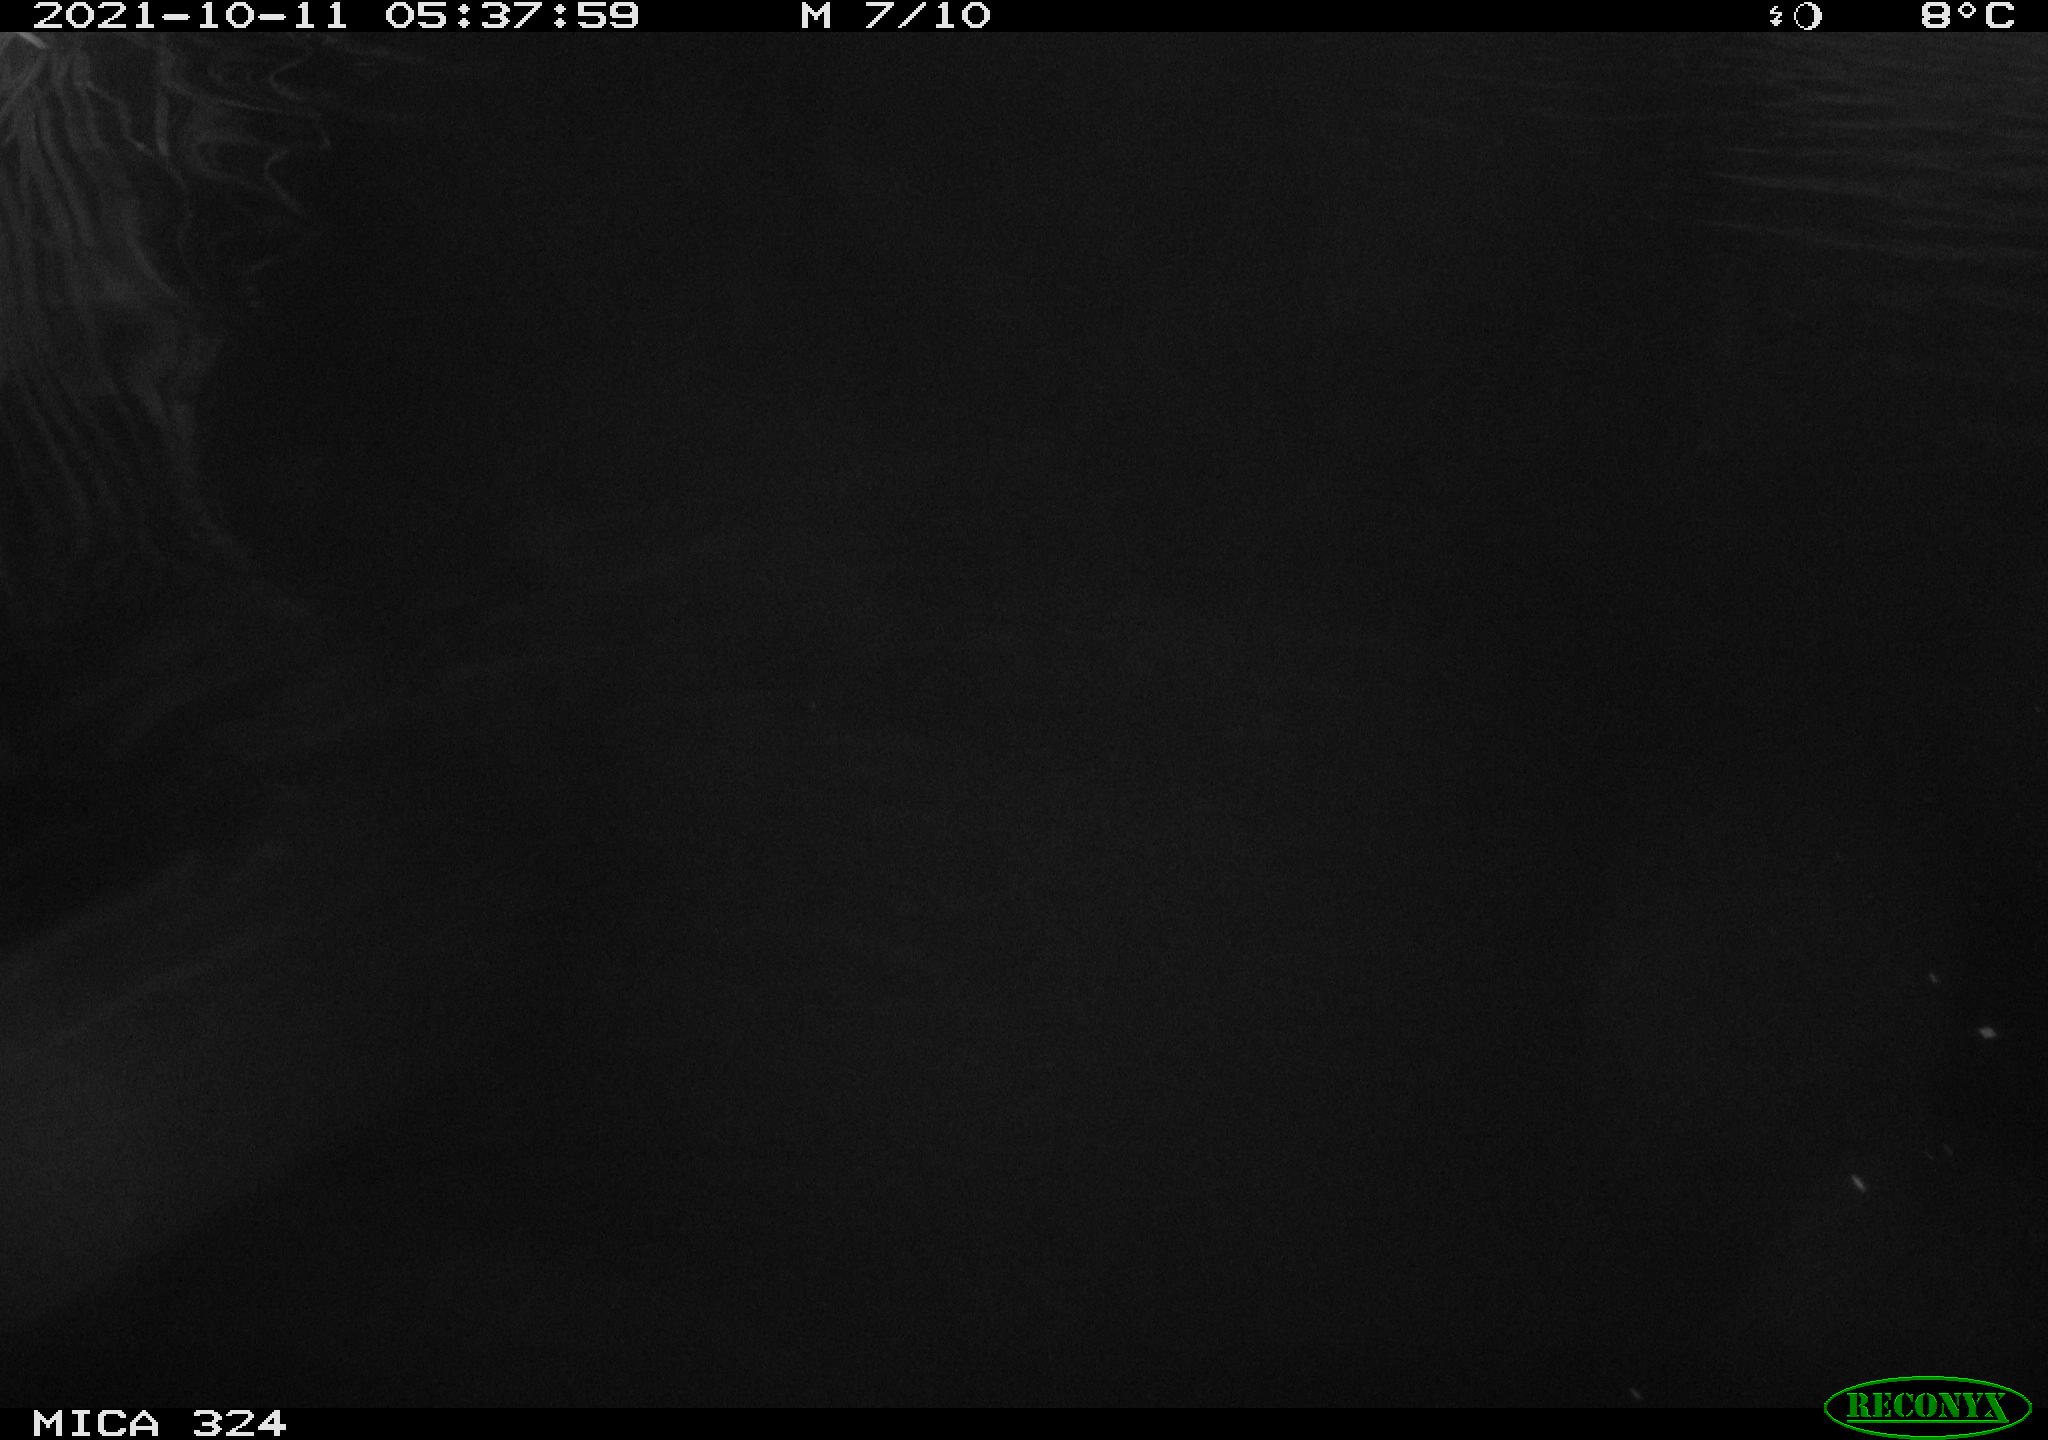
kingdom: Animalia
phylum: Chordata
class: Mammalia
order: Rodentia
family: Cricetidae
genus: Ondatra
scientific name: Ondatra zibethicus
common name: Muskrat
